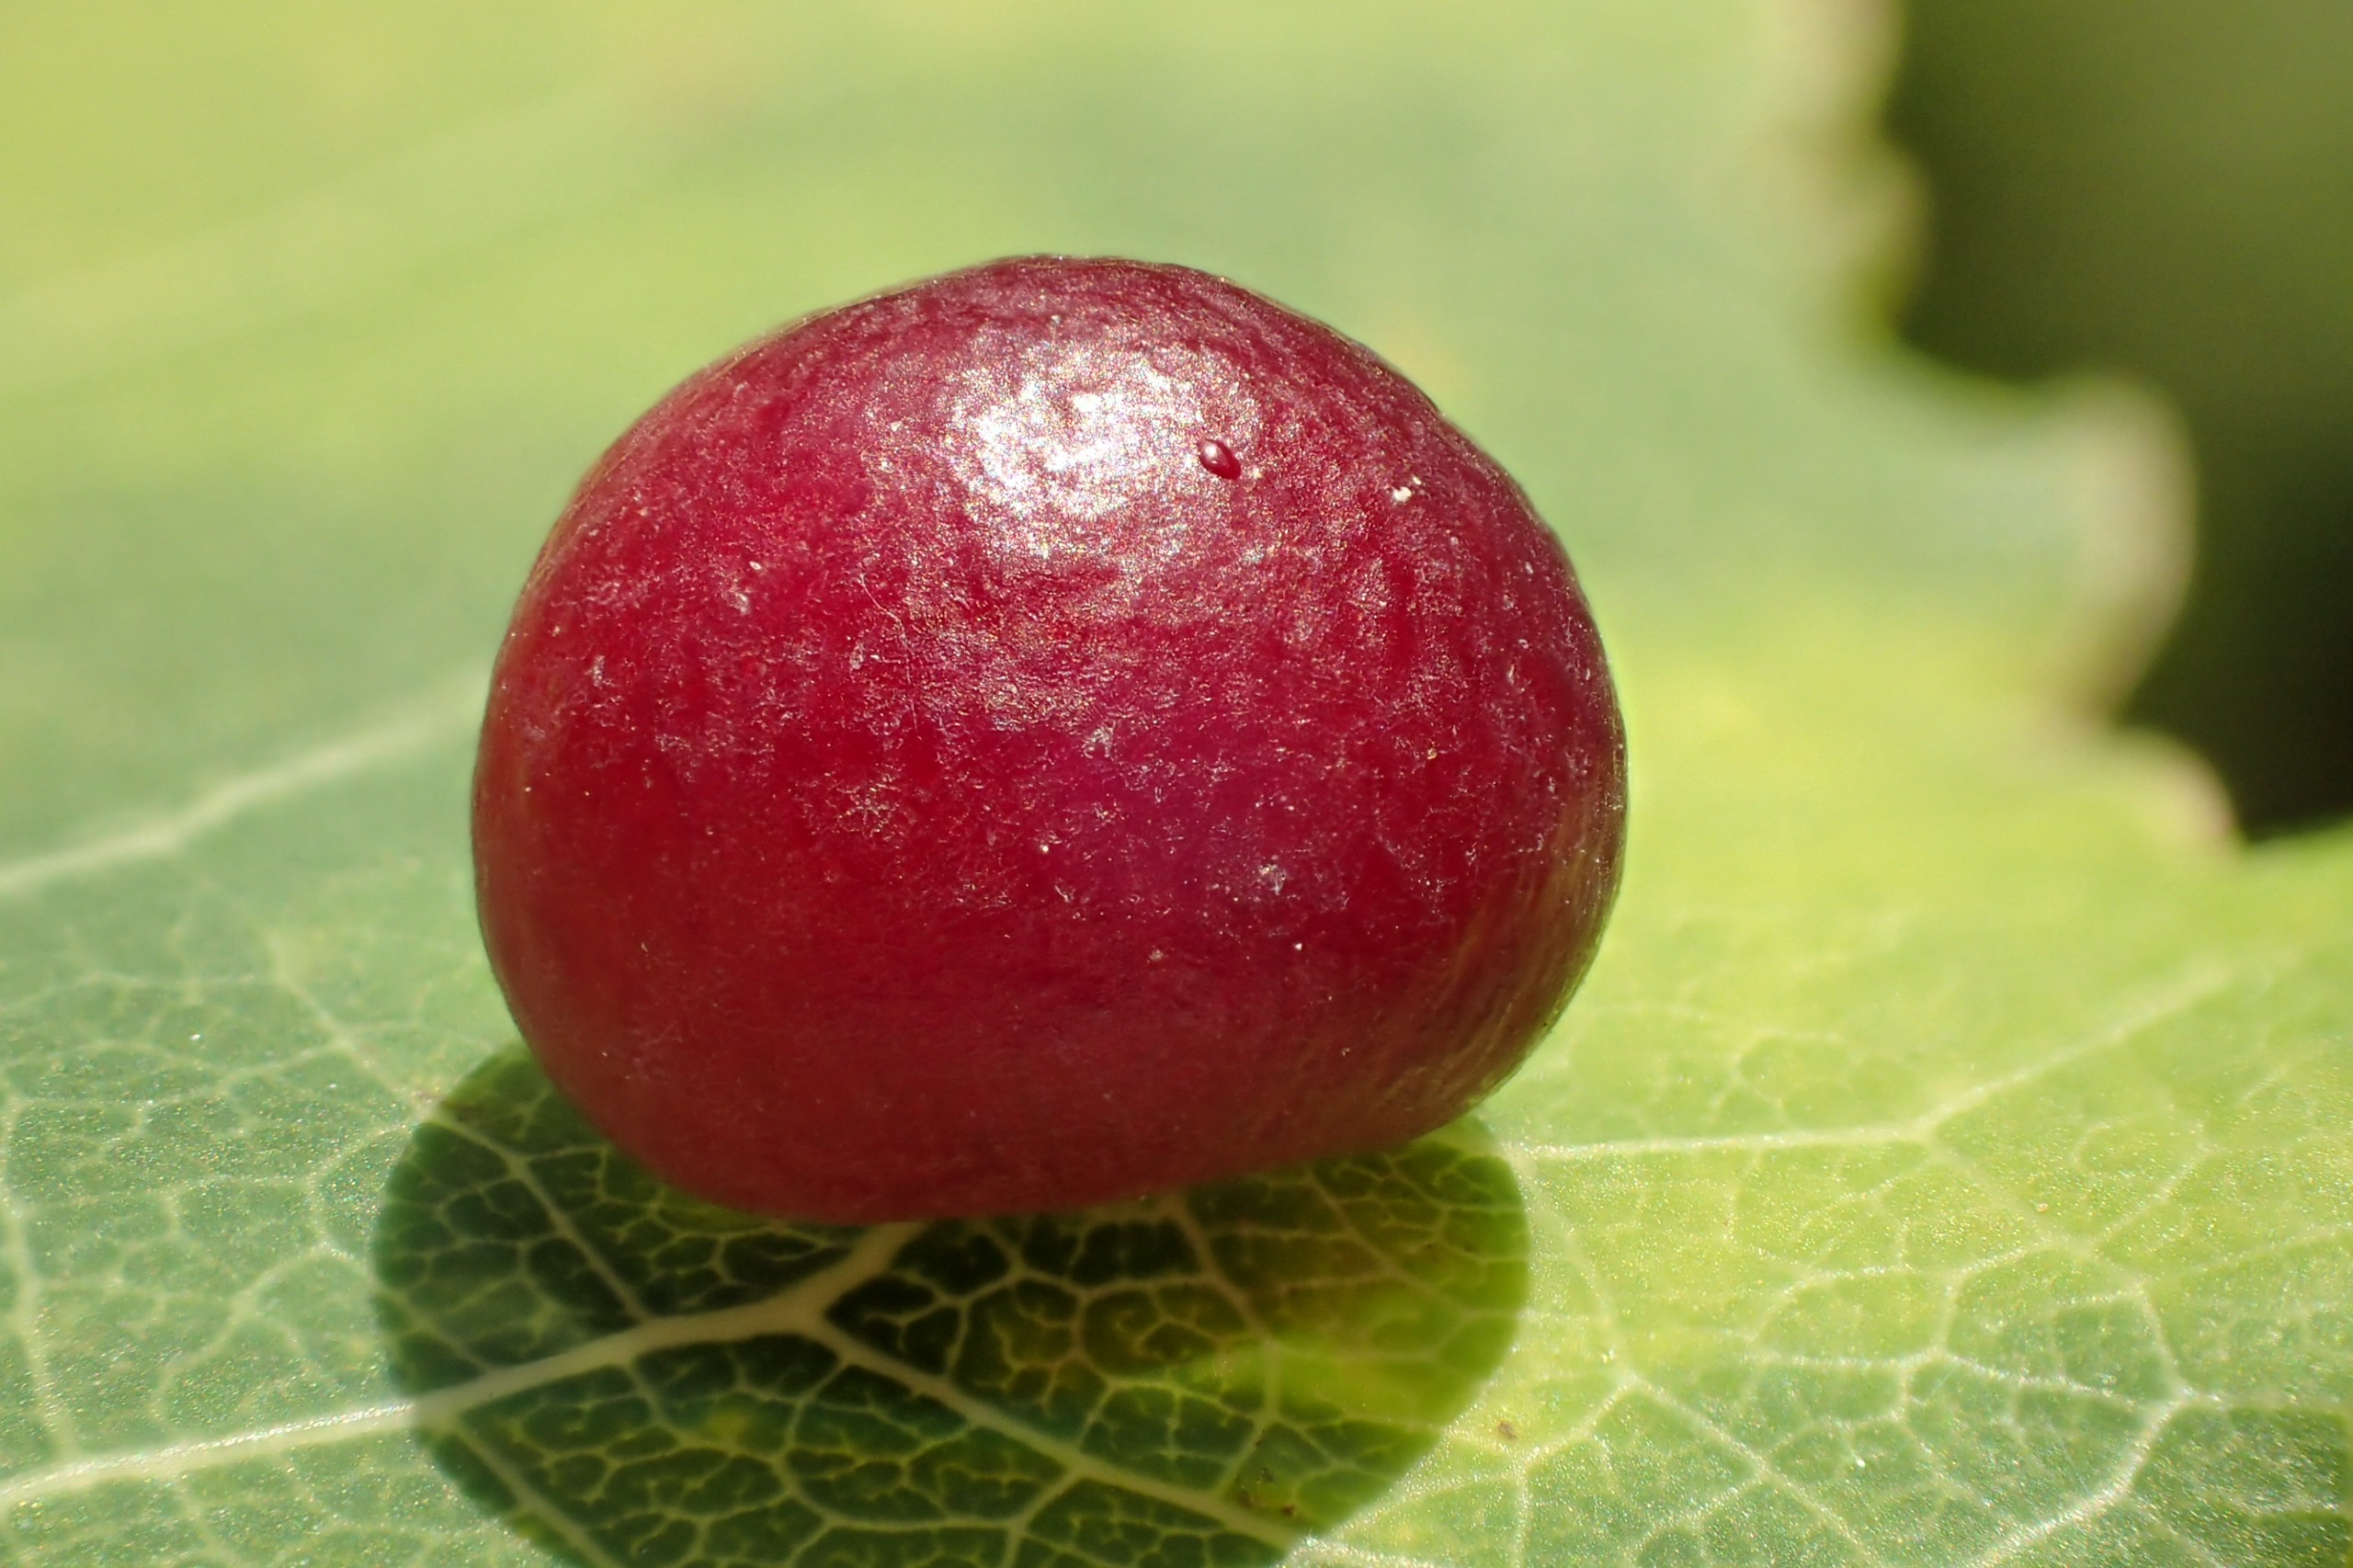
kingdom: Animalia
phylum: Arthropoda
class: Insecta
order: Diptera
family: Cecidomyiidae
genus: Harmandiola
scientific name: Harmandiola tremulae
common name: Aspekuglegalmyg
